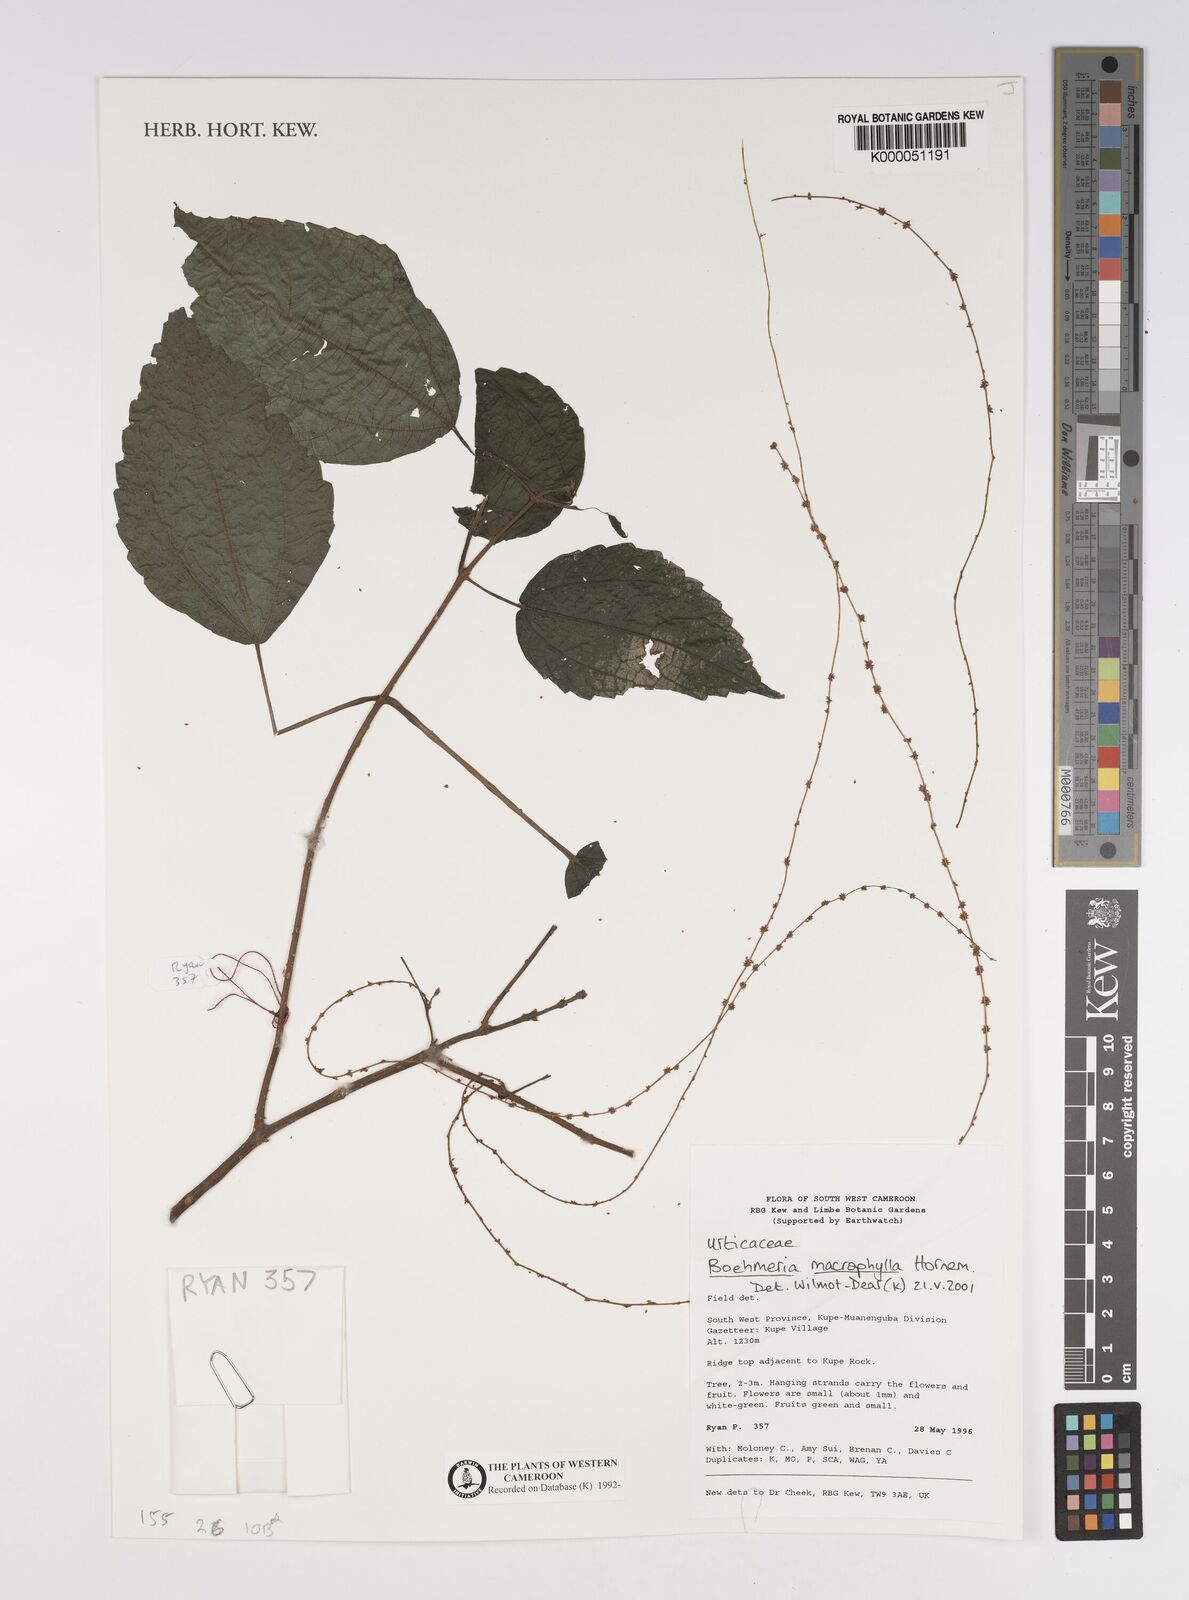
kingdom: Plantae
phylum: Tracheophyta
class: Magnoliopsida
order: Rosales
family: Urticaceae
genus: Boehmeria
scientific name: Boehmeria virgata
